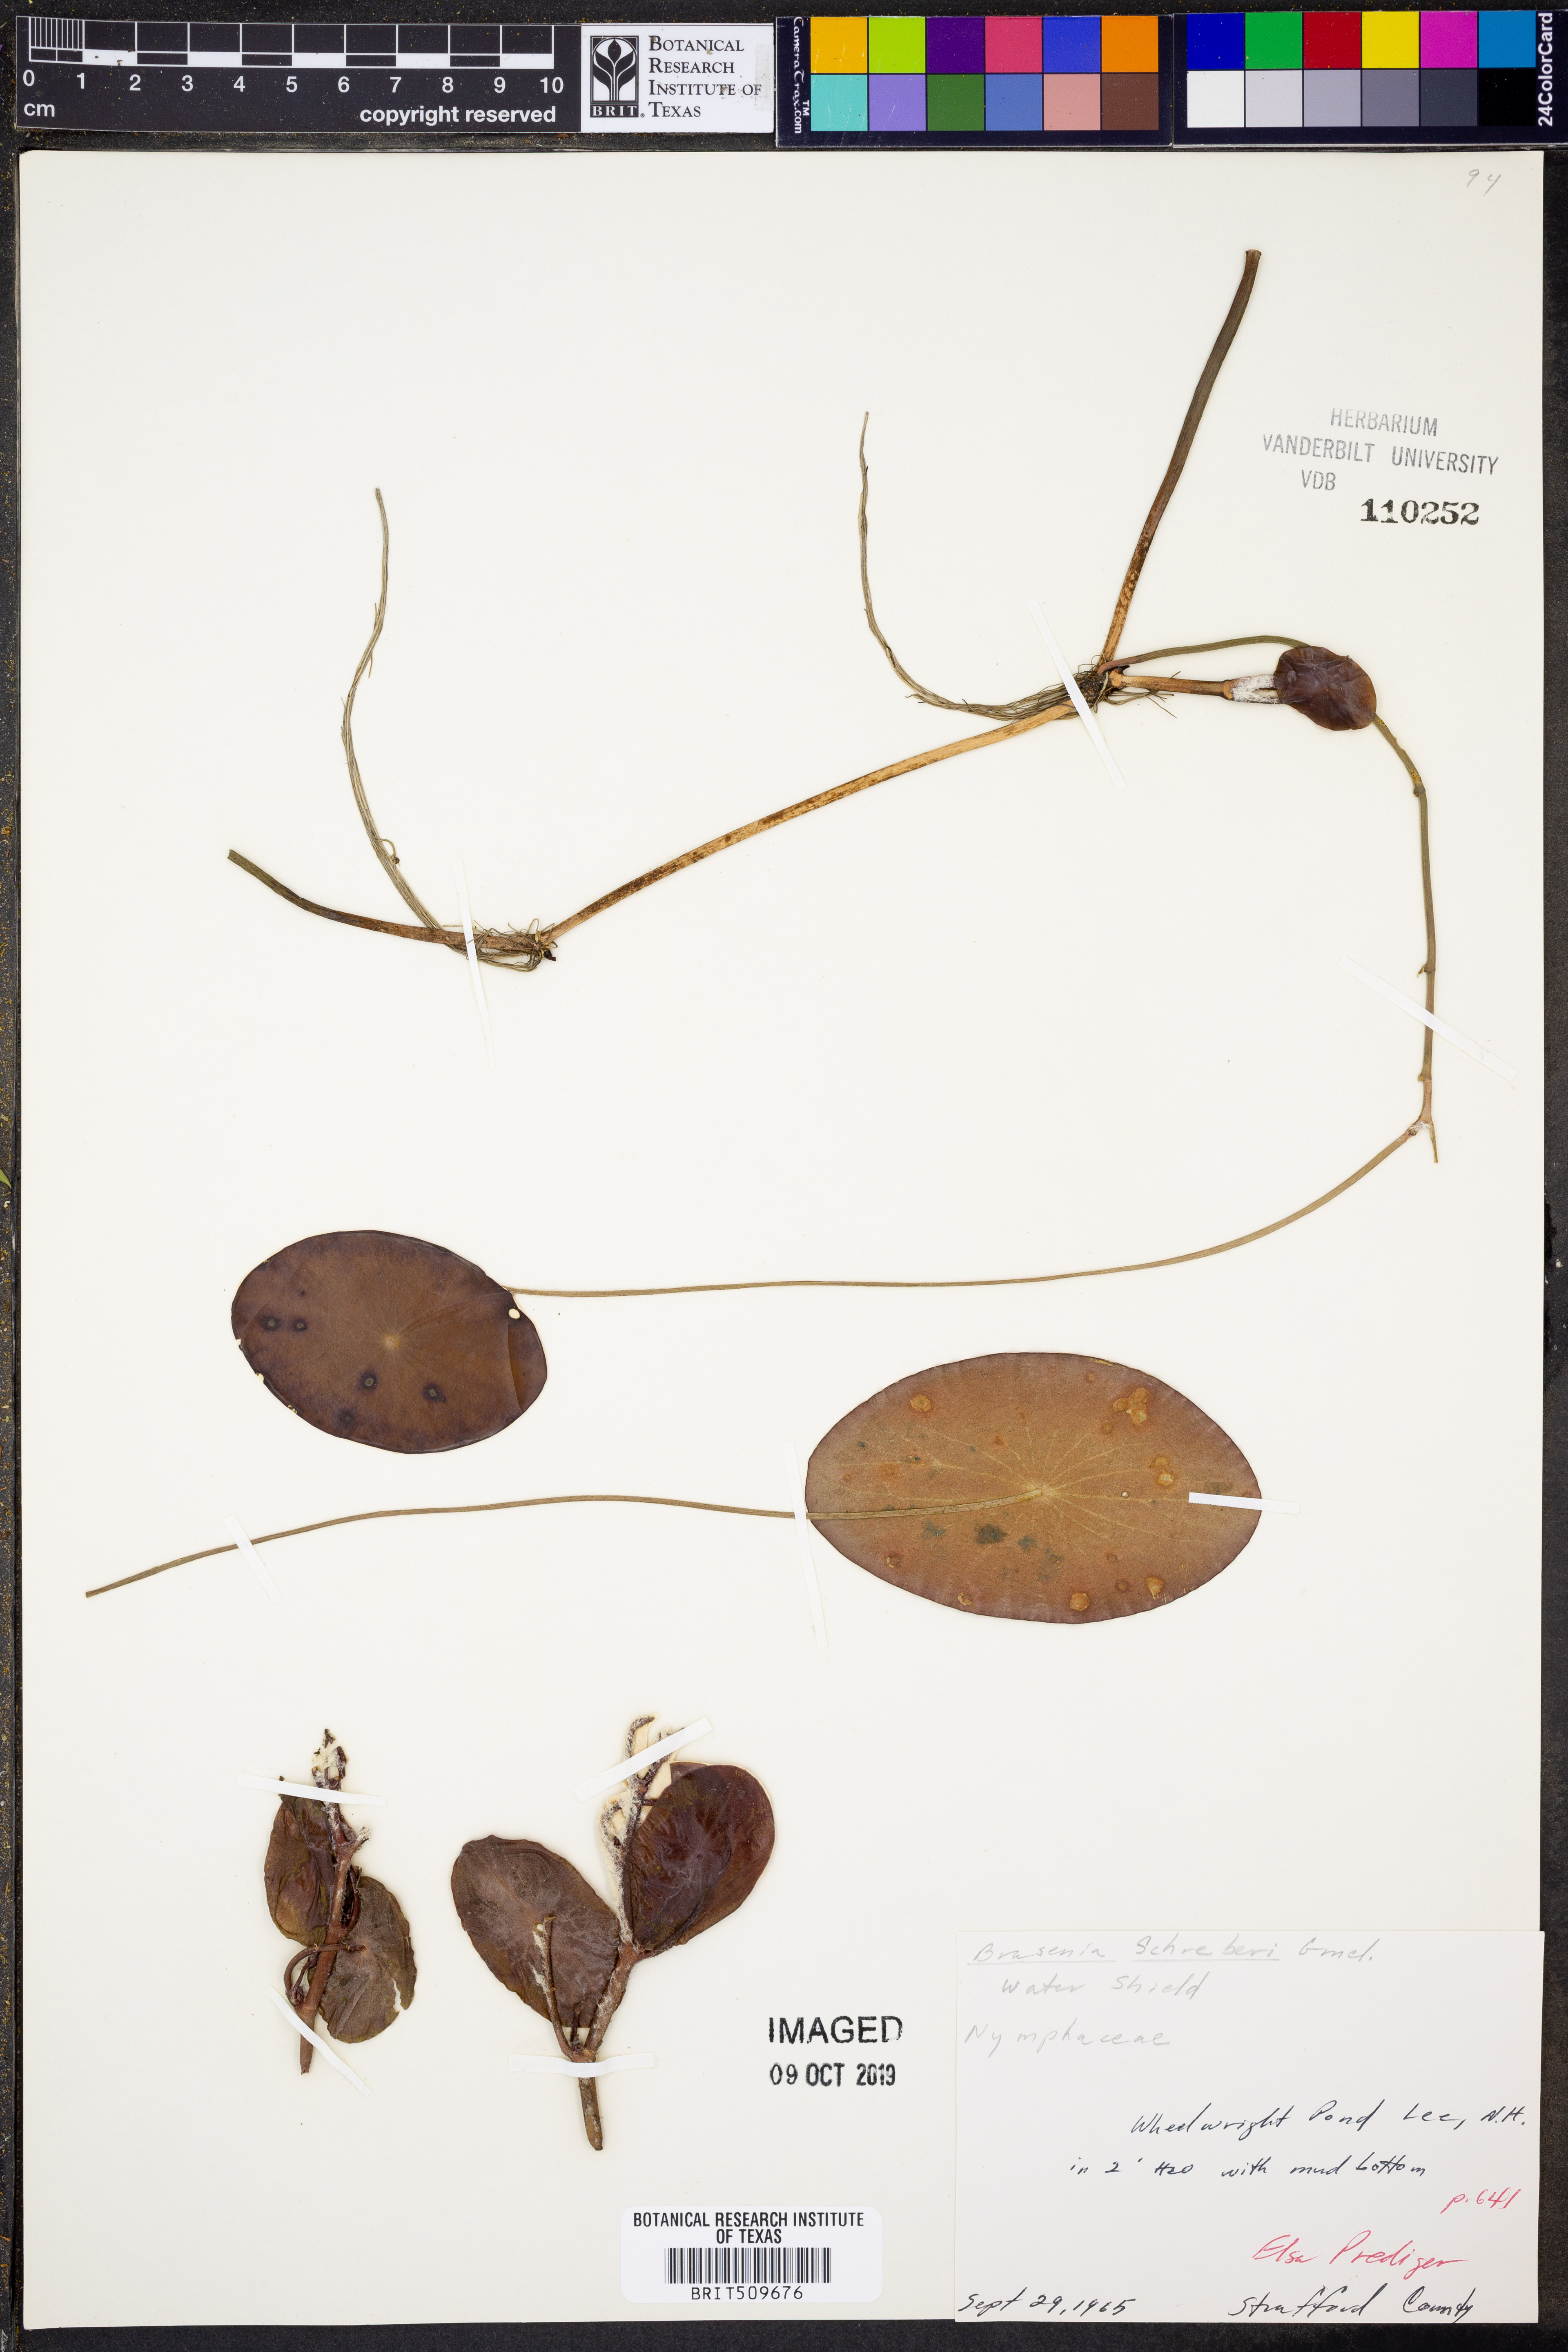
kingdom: Plantae
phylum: Tracheophyta
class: Magnoliopsida
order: Nymphaeales
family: Cabombaceae
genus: Brasenia
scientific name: Brasenia schreberi
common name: Water-shield
